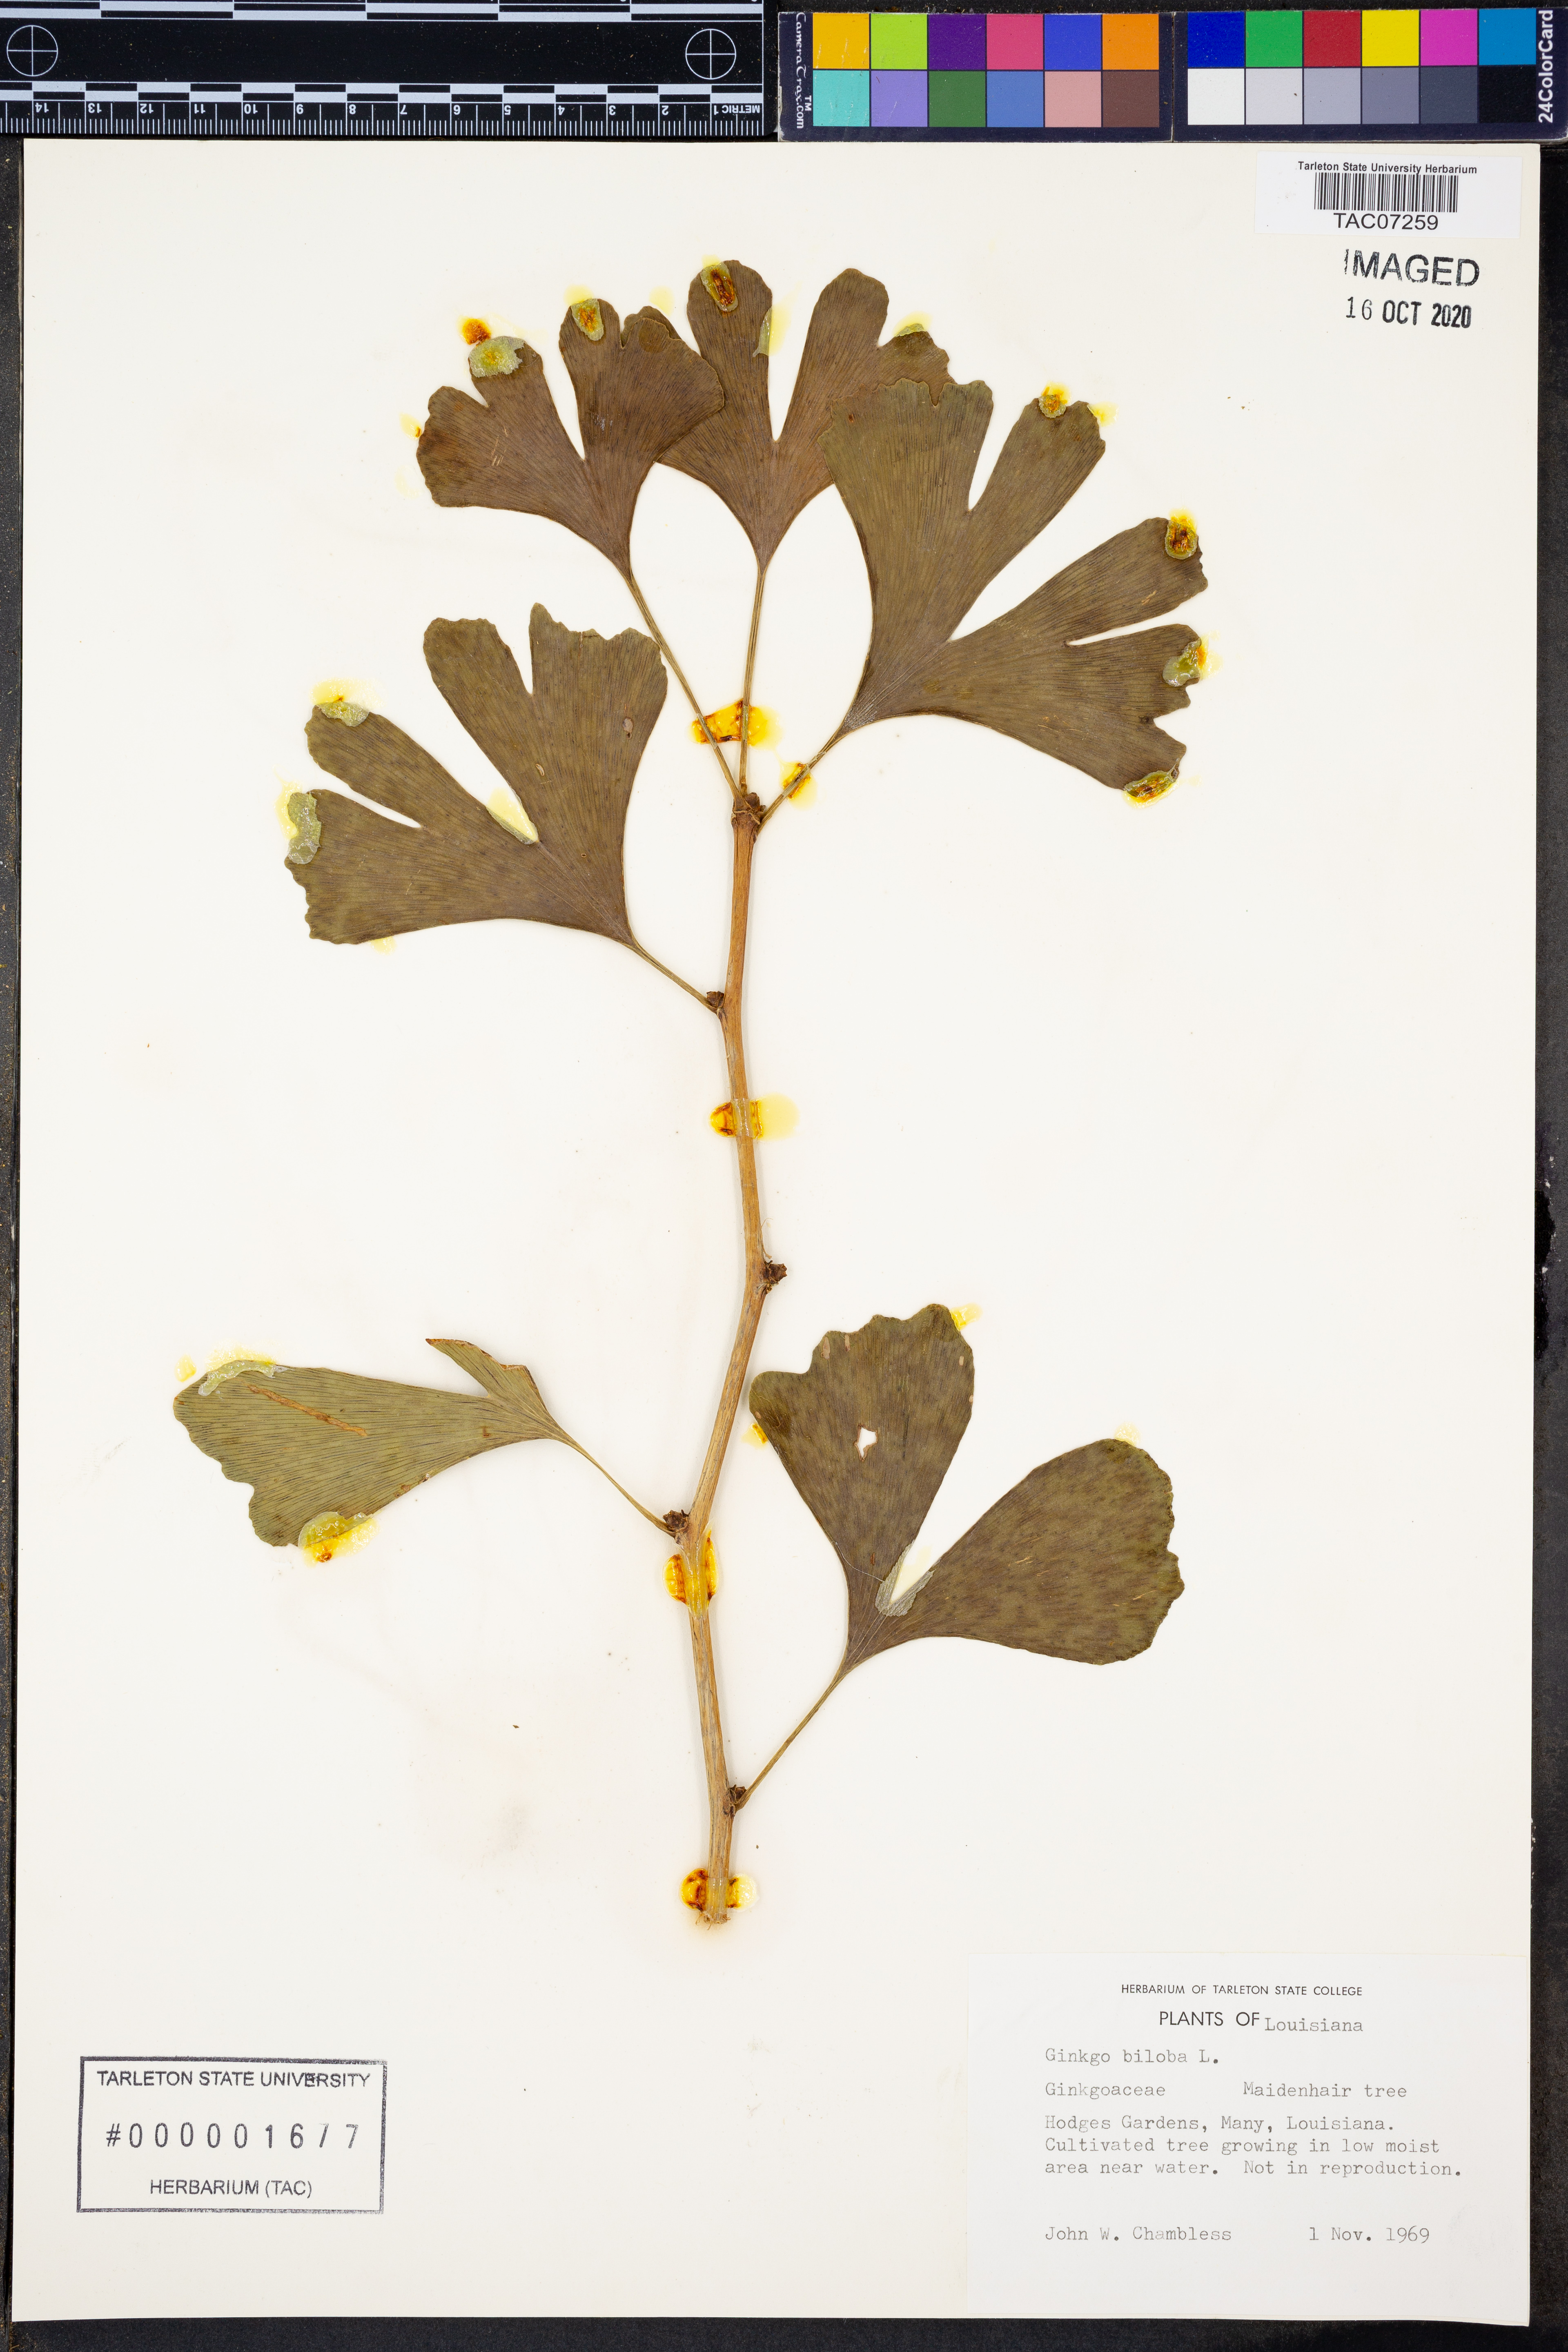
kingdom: Plantae
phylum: Tracheophyta
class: Ginkgoopsida
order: Ginkgoales
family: Ginkgoaceae
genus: Ginkgo
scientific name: Ginkgo biloba
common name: Ginkgo
